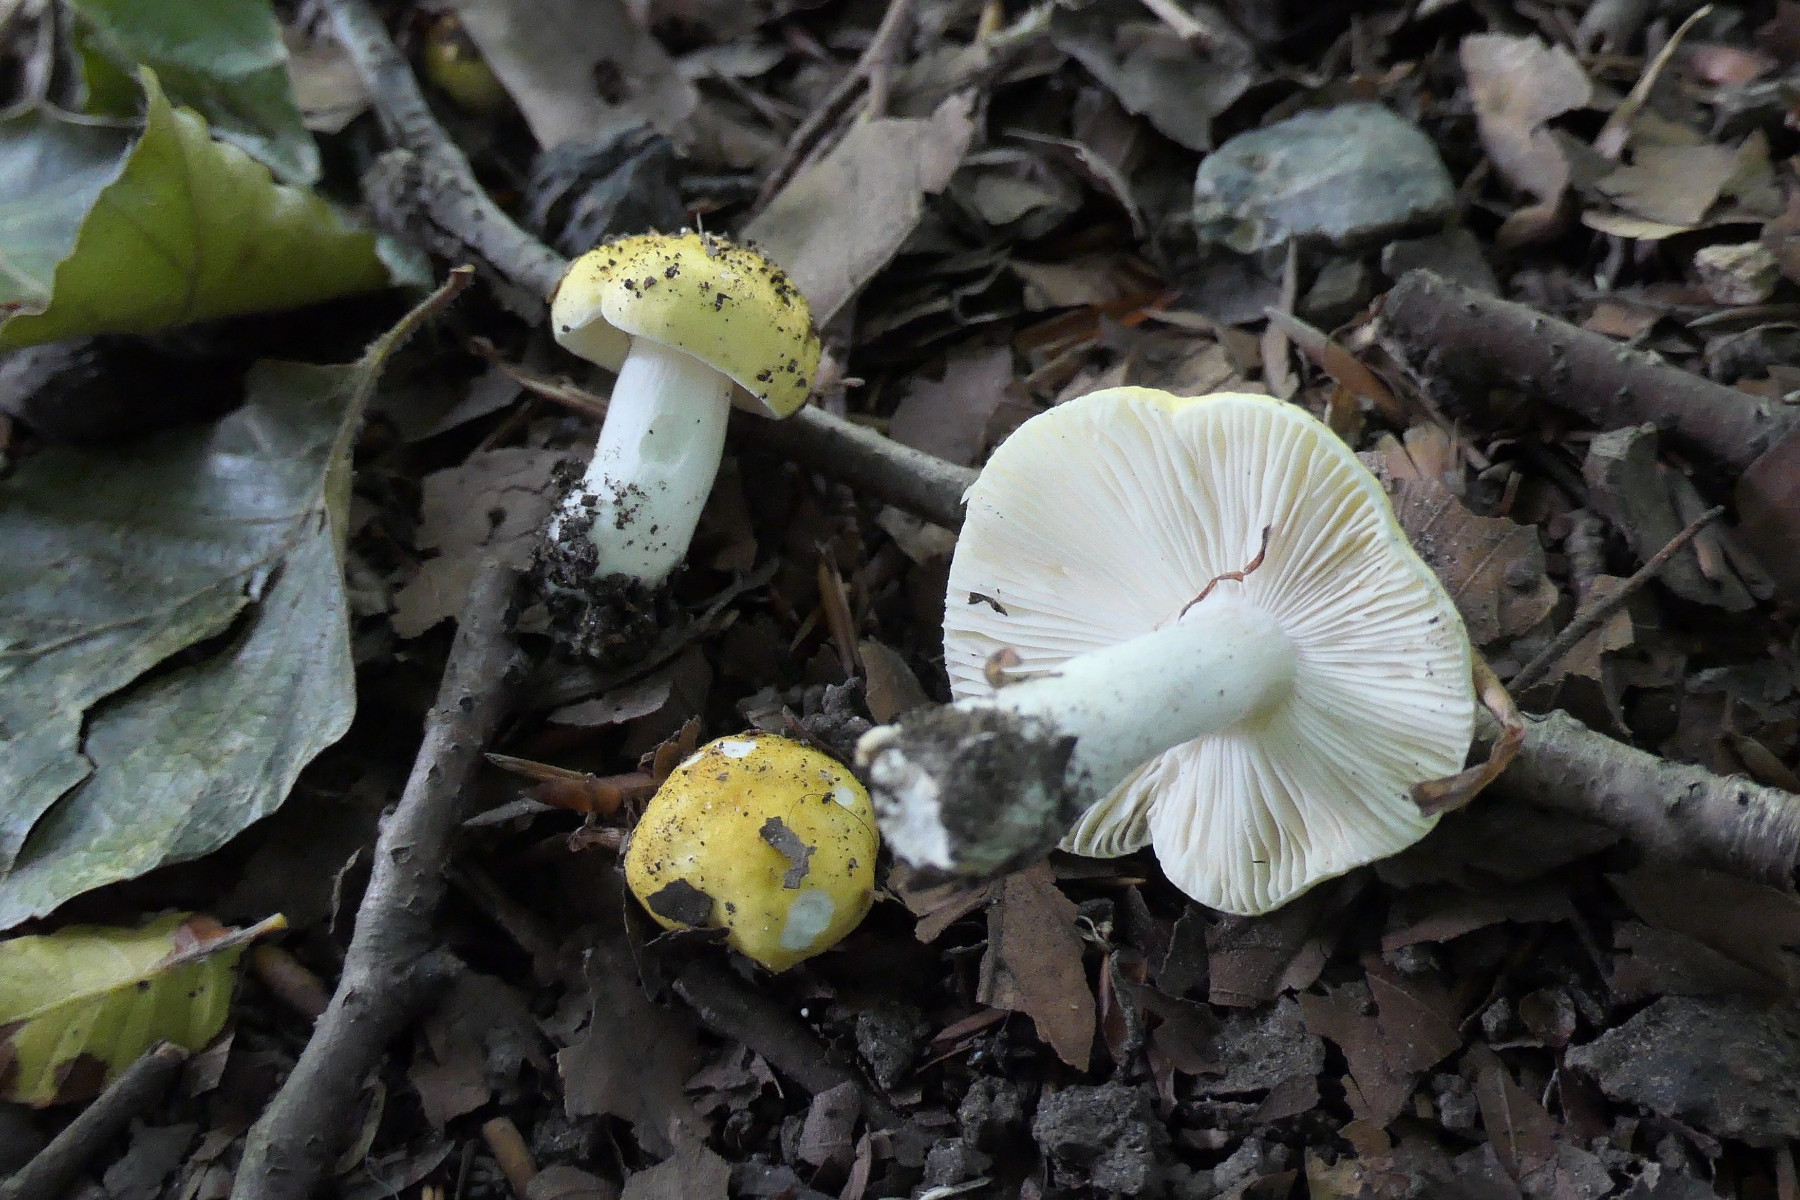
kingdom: Fungi
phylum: Basidiomycota
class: Agaricomycetes
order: Russulales
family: Russulaceae
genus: Russula
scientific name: Russula solaris
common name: sol-skørhat
